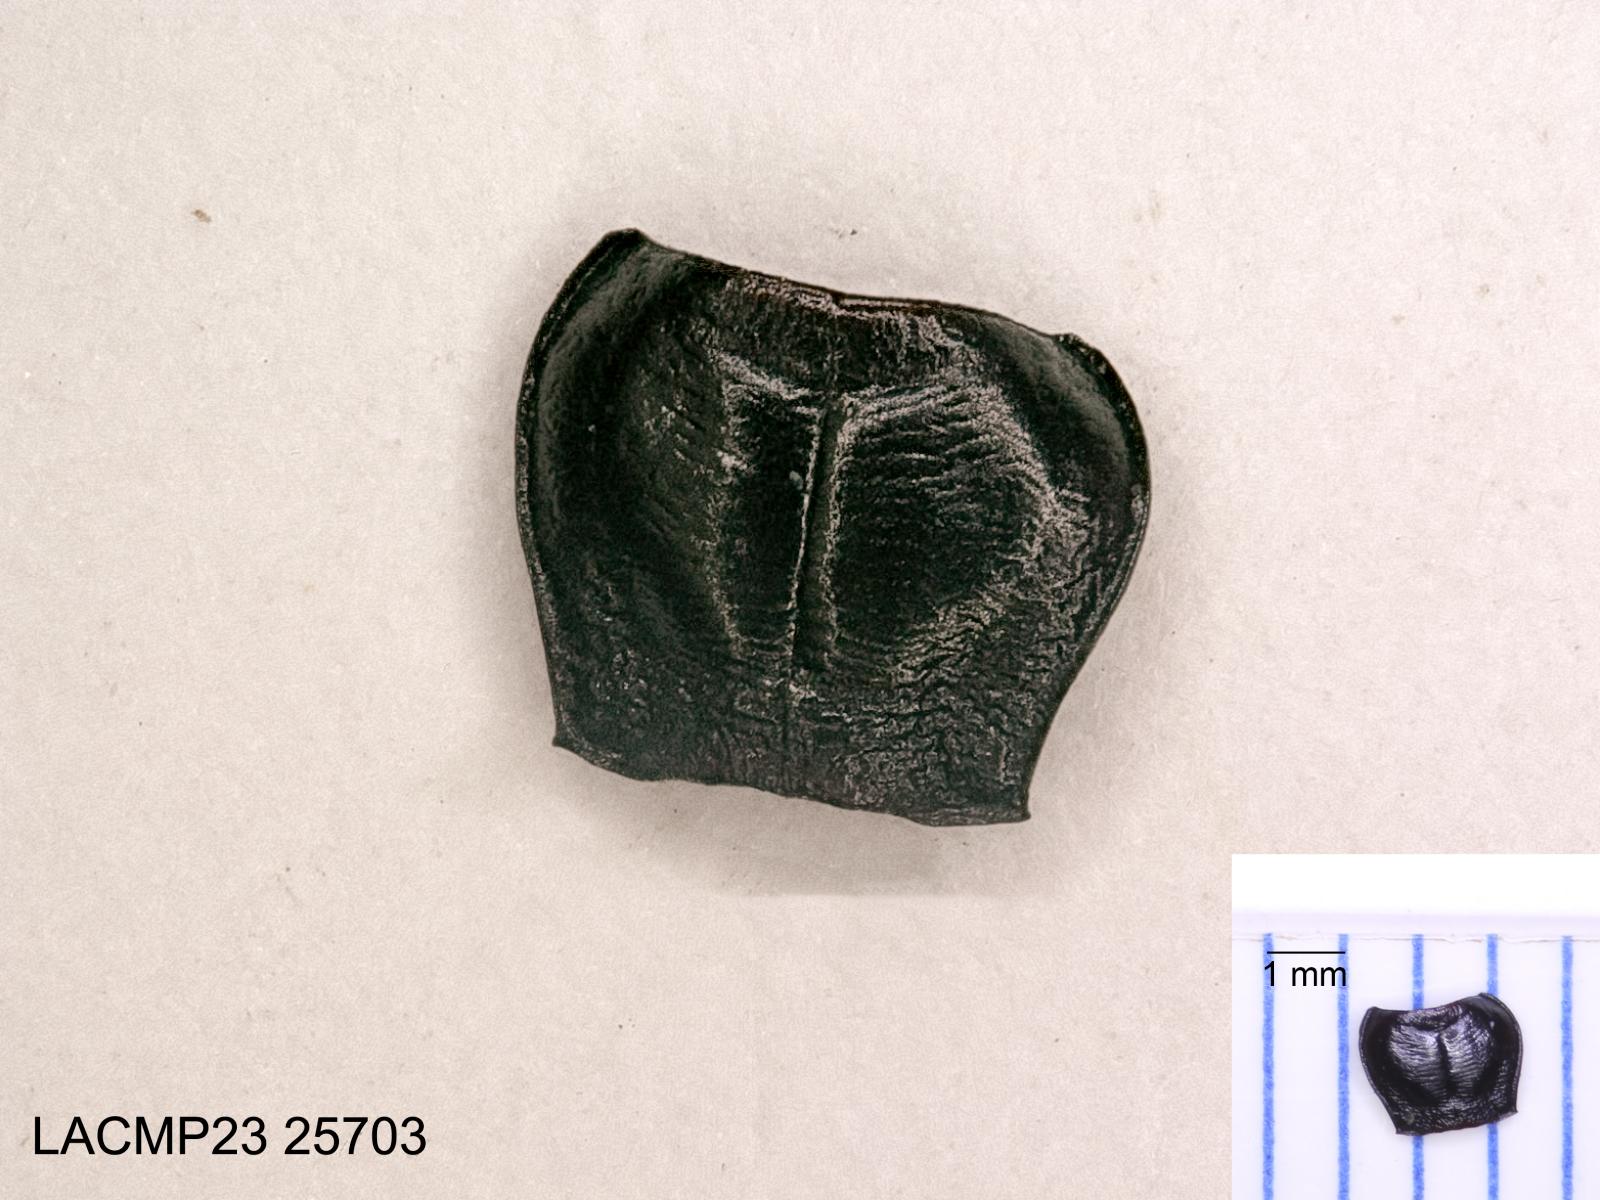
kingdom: Animalia
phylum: Arthropoda
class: Insecta
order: Coleoptera
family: Carabidae
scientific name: Carabidae
